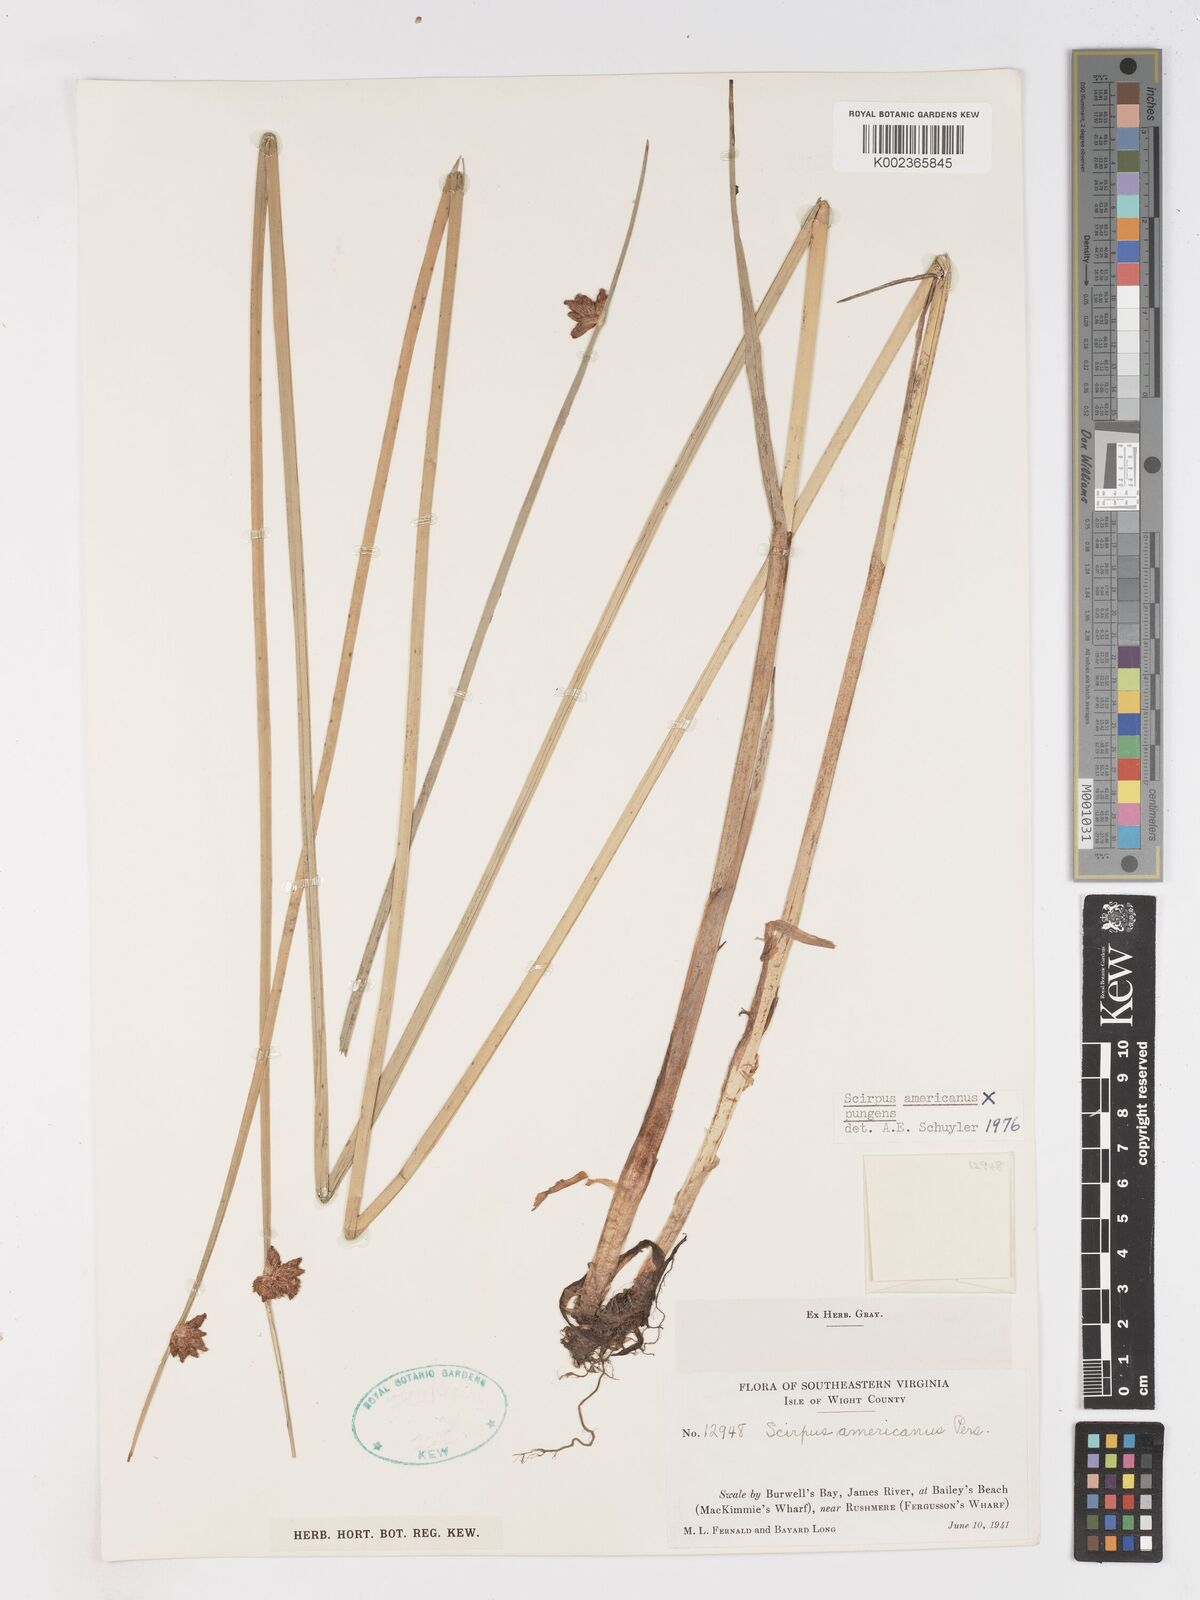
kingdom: Plantae
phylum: Tracheophyta
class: Liliopsida
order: Poales
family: Cyperaceae
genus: Schoenoplectus
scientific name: Schoenoplectus pungens
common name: Sharp club-rush
